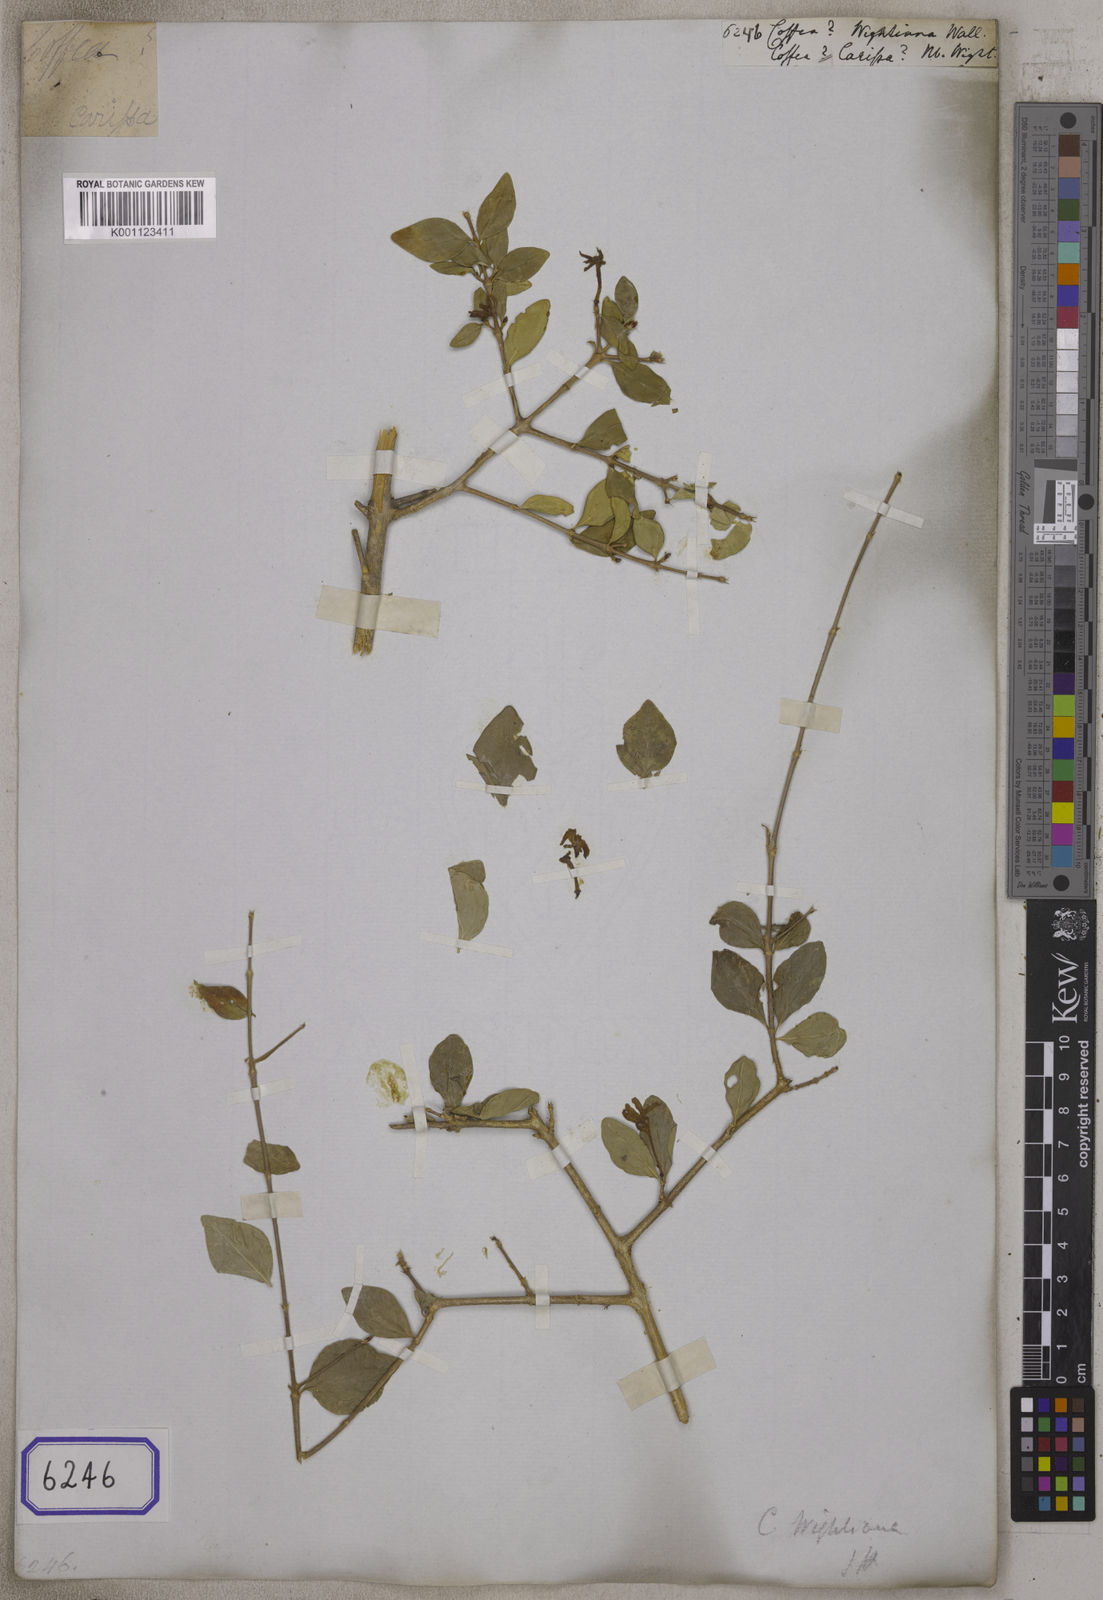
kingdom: Plantae
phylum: Tracheophyta
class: Magnoliopsida
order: Gentianales
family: Rubiaceae
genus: Coffea
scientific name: Coffea
